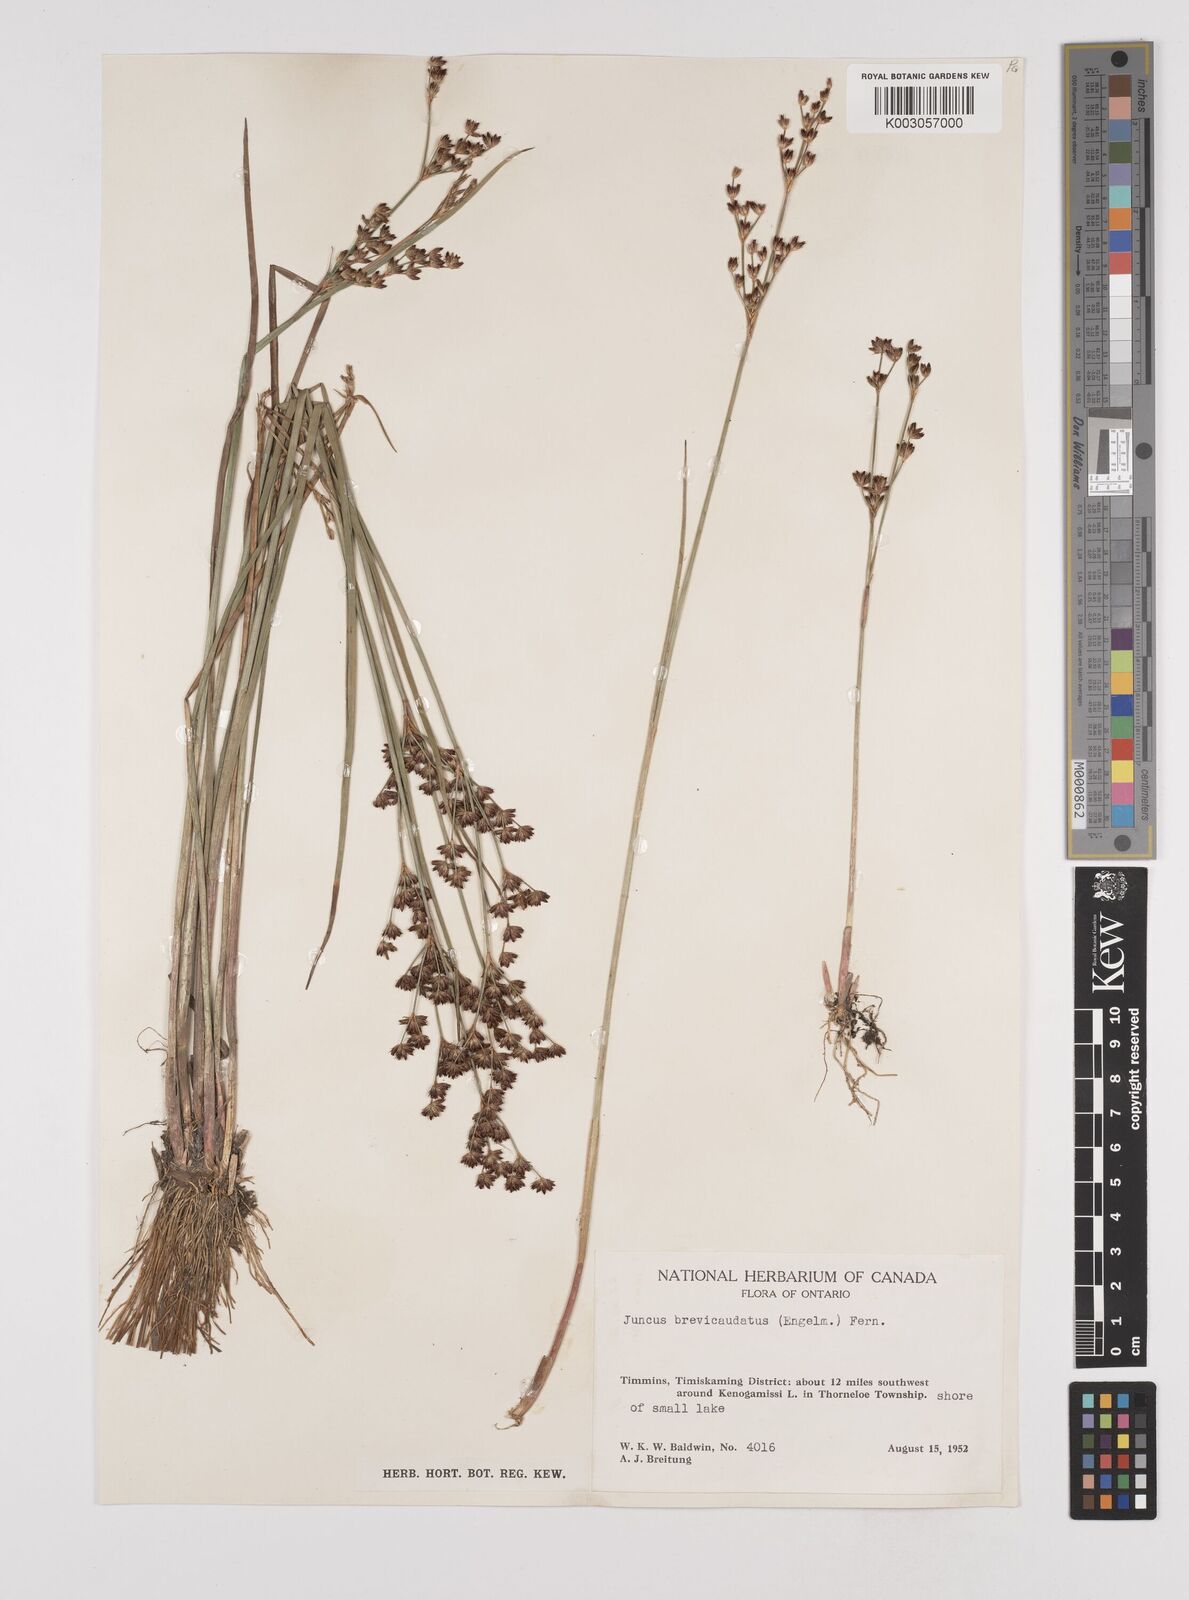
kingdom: Plantae
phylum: Tracheophyta
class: Liliopsida
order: Poales
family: Juncaceae
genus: Juncus
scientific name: Juncus brevicaudatus
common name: Narrow-panicle rush
